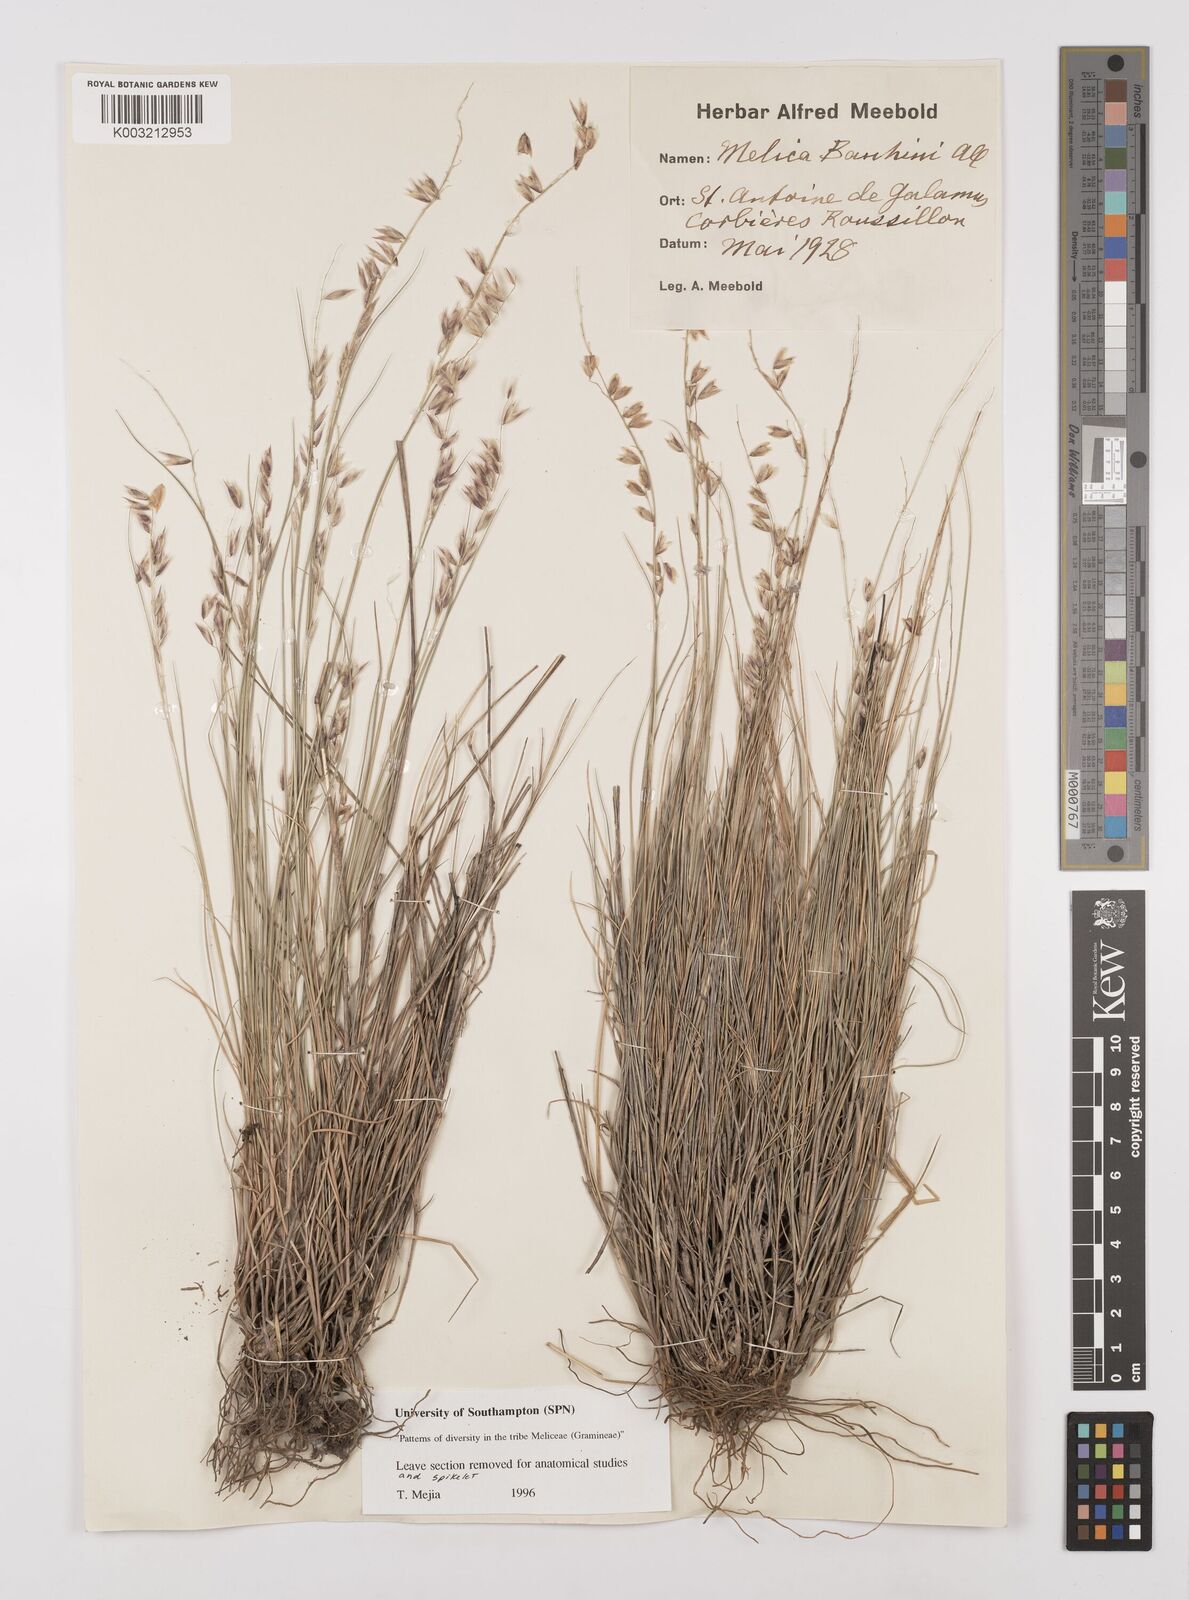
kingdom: Plantae
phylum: Tracheophyta
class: Liliopsida
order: Poales
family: Poaceae
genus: Melica
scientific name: Melica amethystina
